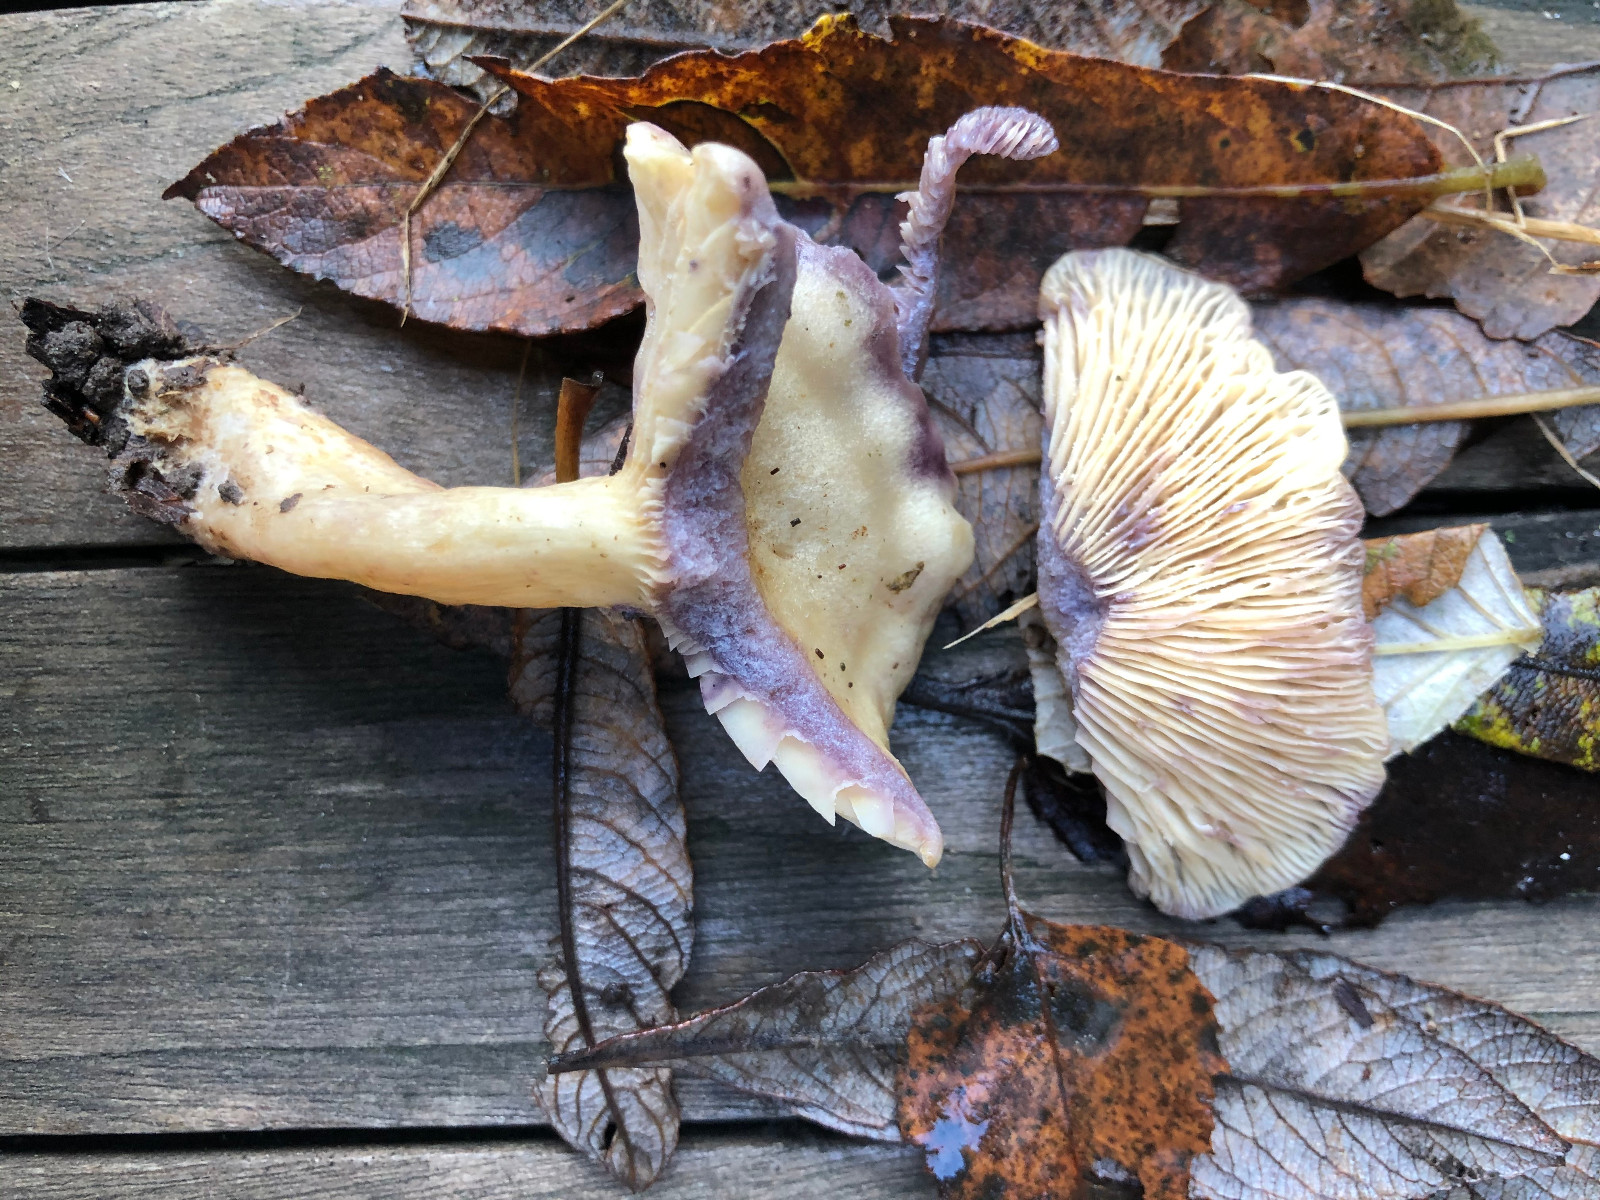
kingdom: Fungi
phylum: Basidiomycota
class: Agaricomycetes
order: Russulales
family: Russulaceae
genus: Lactarius
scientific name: Lactarius aspideus
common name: pile-mælkehat
